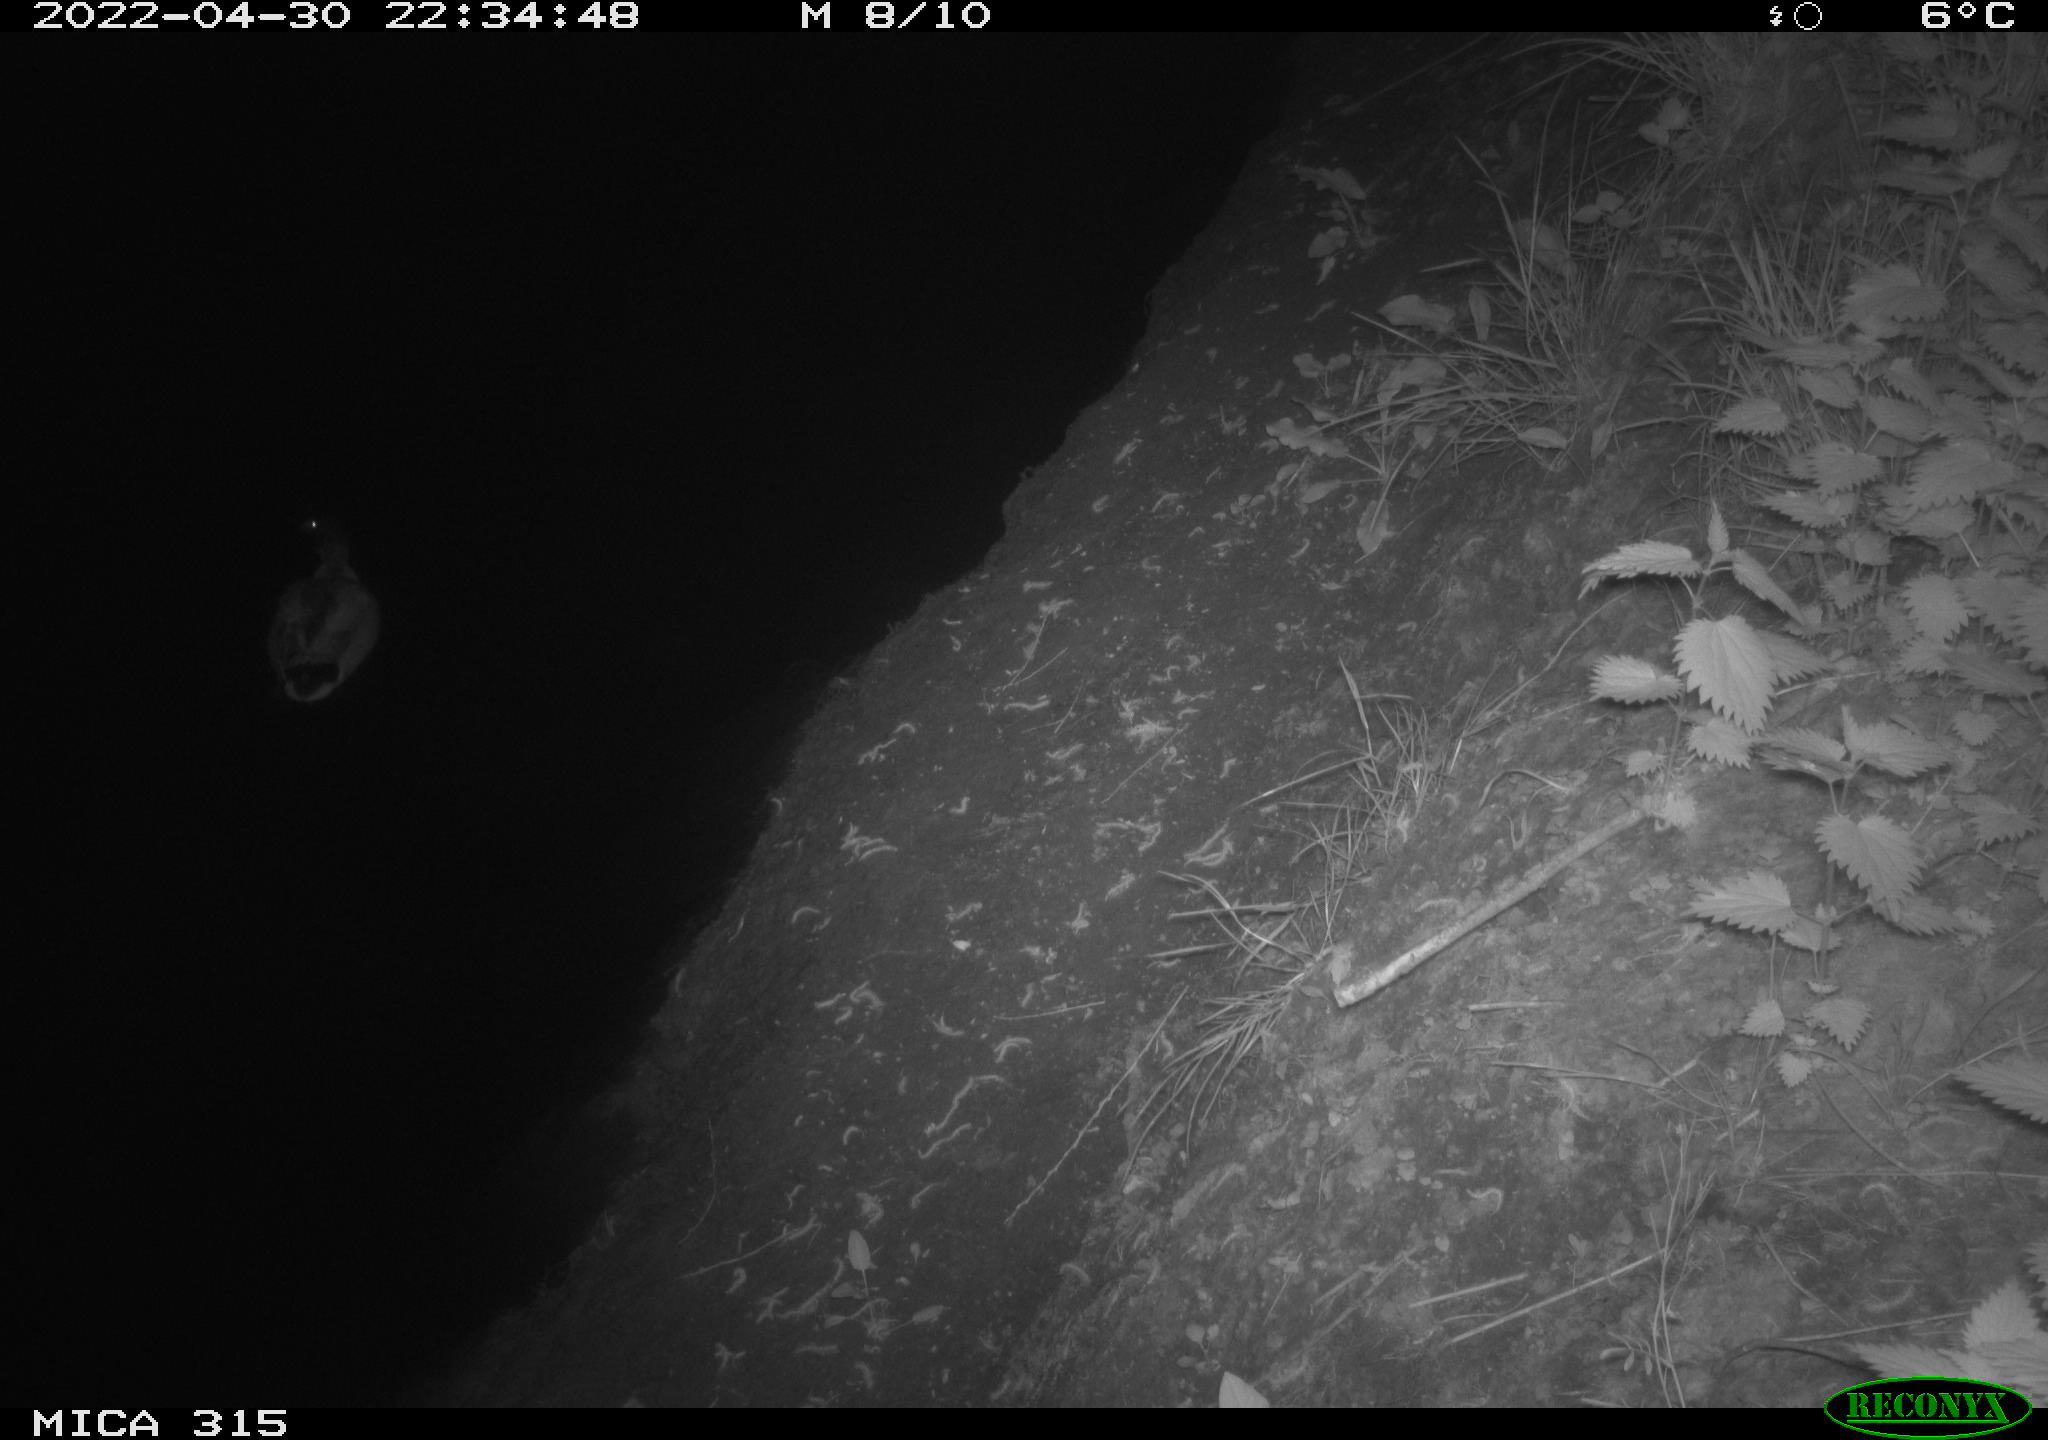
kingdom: Animalia
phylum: Chordata
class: Aves
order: Anseriformes
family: Anatidae
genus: Anas
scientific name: Anas platyrhynchos
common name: Mallard
